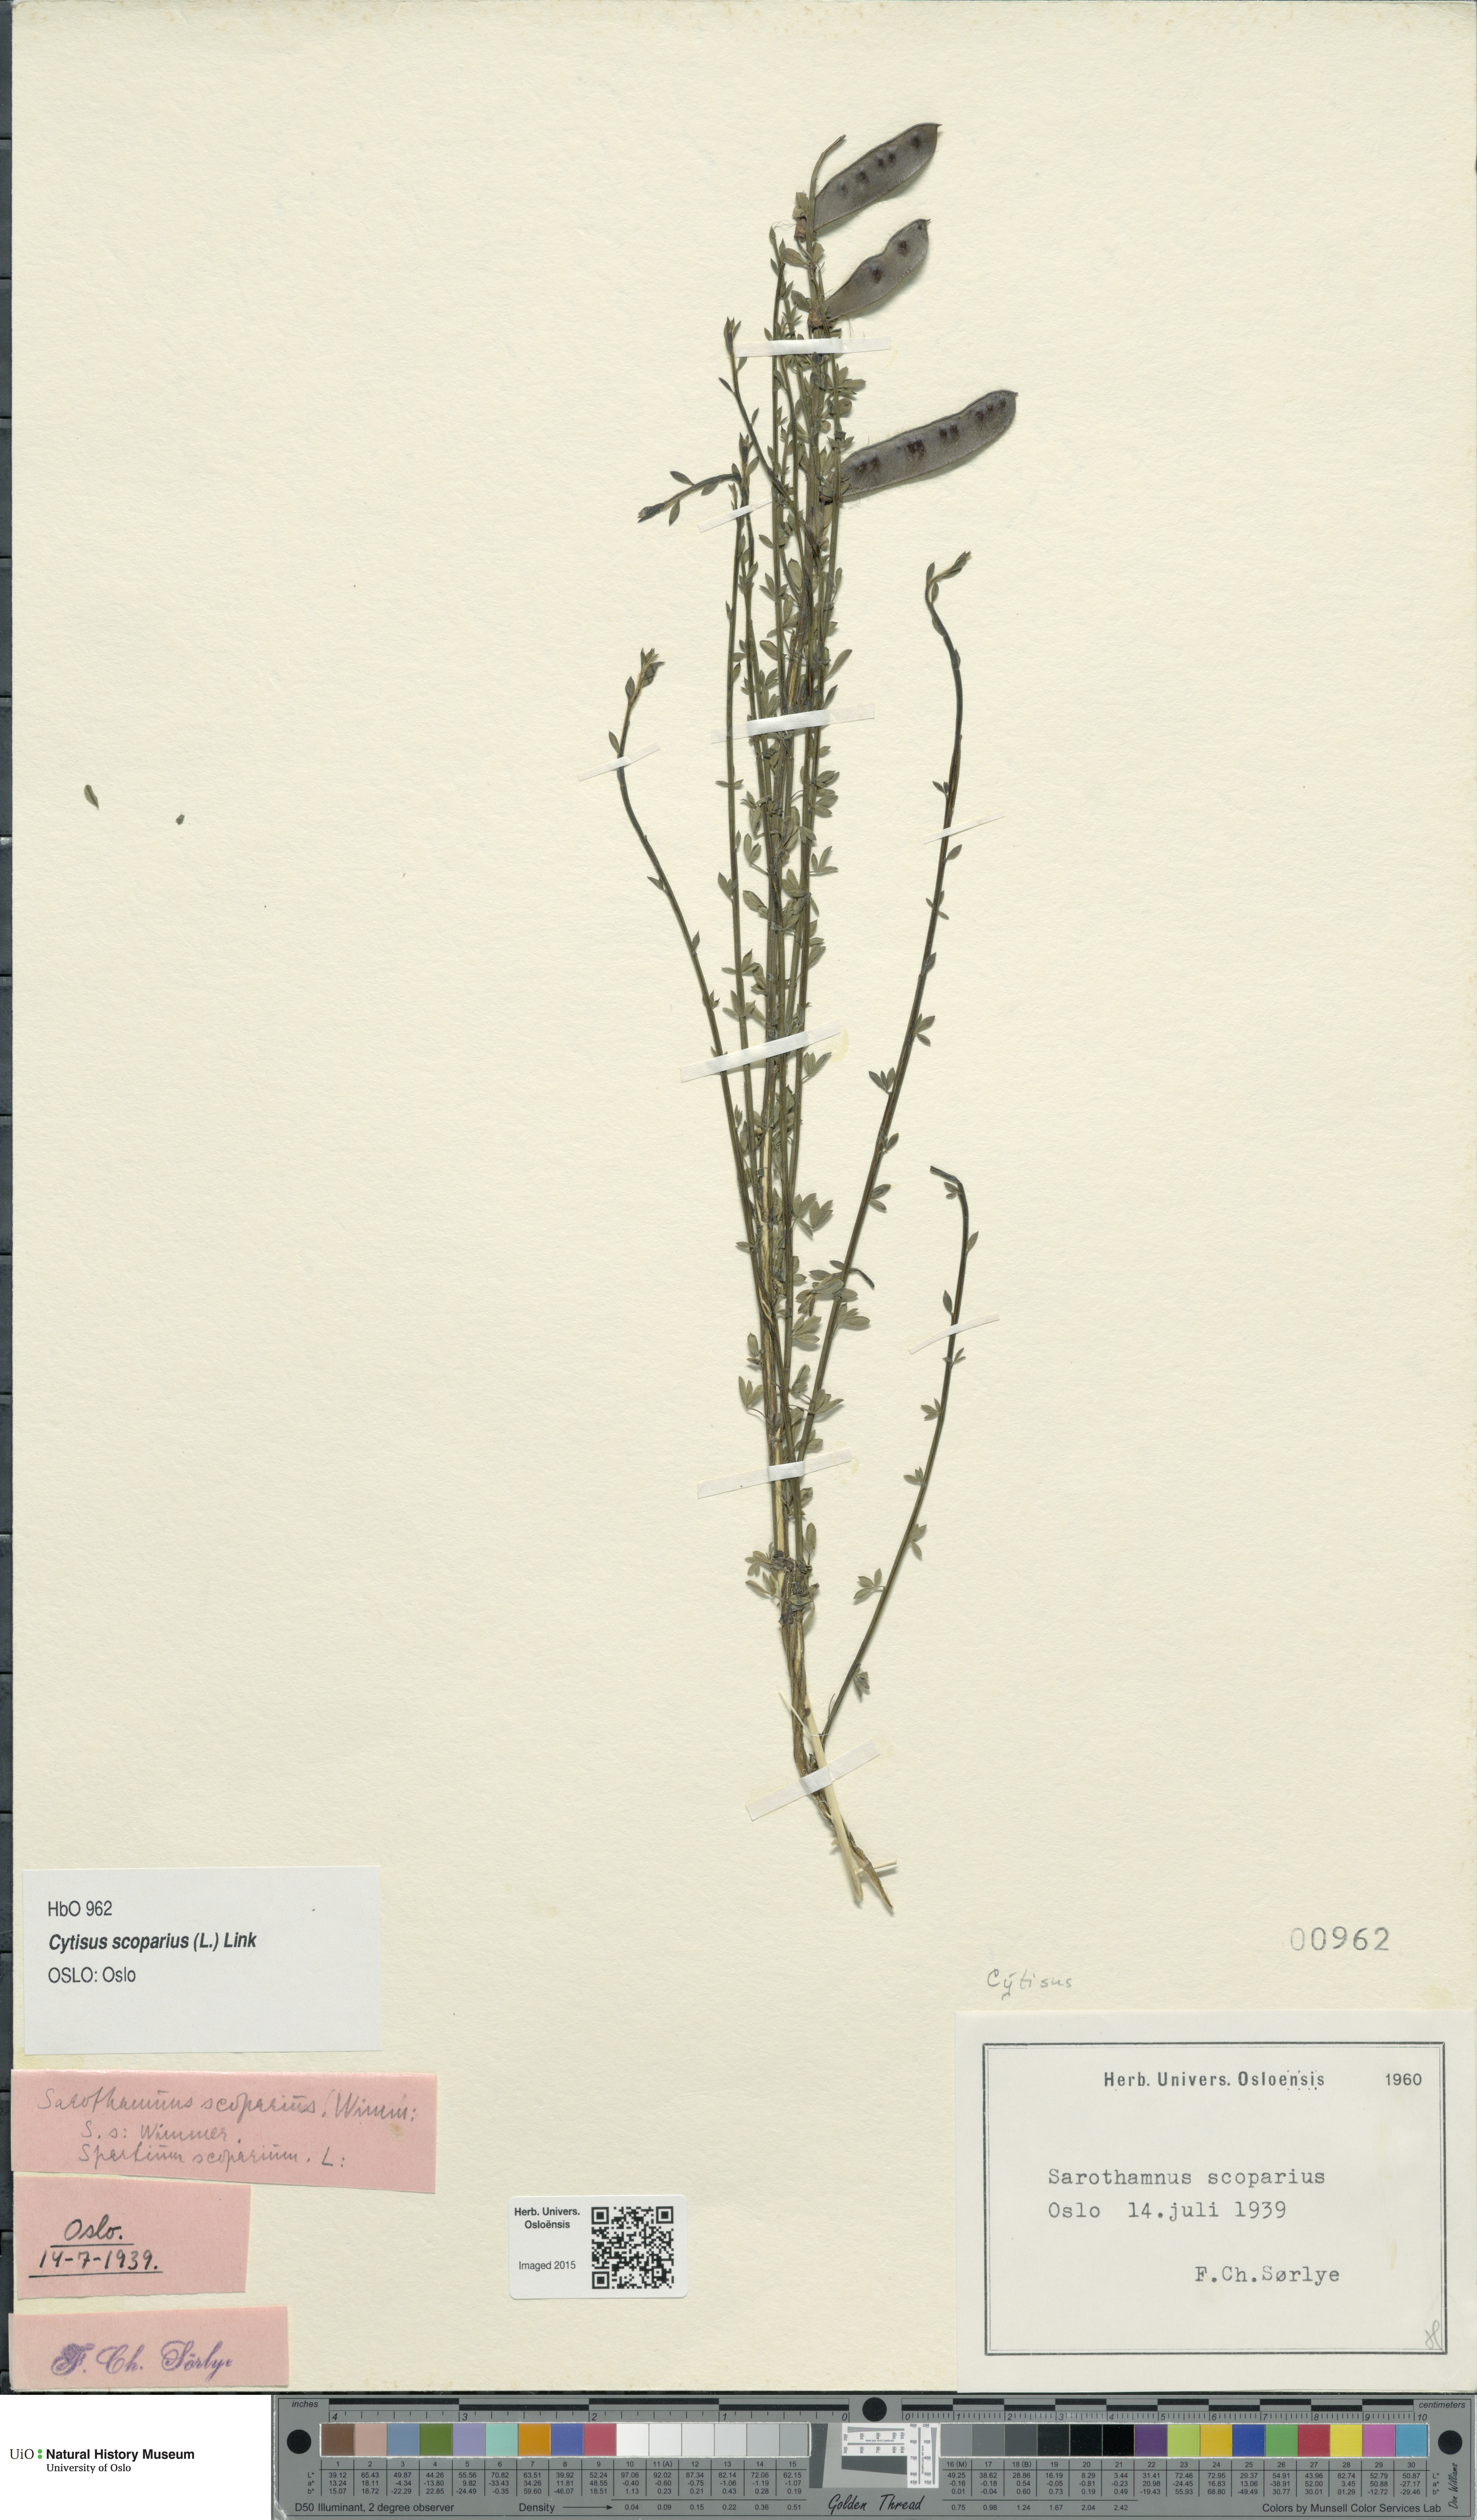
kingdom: Plantae
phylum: Tracheophyta
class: Magnoliopsida
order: Fabales
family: Fabaceae
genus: Cytisus
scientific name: Cytisus scoparius
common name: Scotch broom
